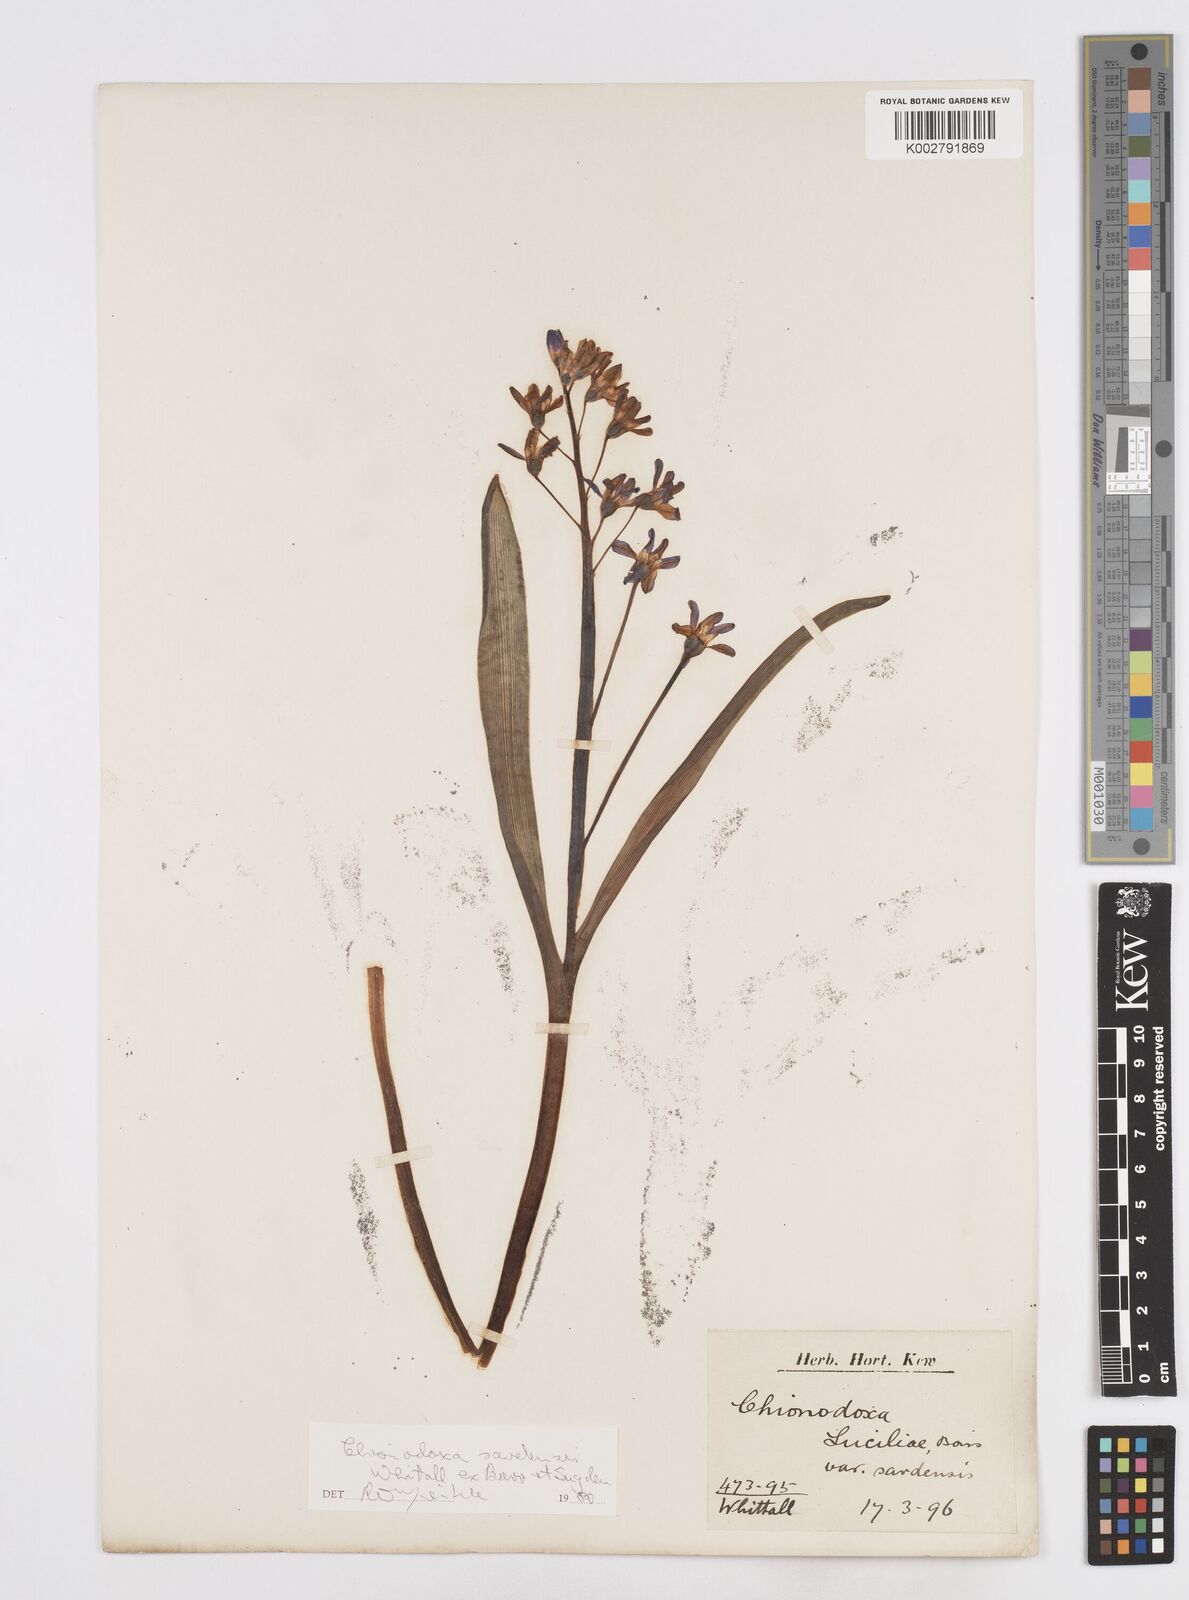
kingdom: Plantae
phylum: Tracheophyta
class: Liliopsida
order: Asparagales
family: Asparagaceae
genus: Scilla
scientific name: Scilla sardensis
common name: Lesser glory-of-the-snow
